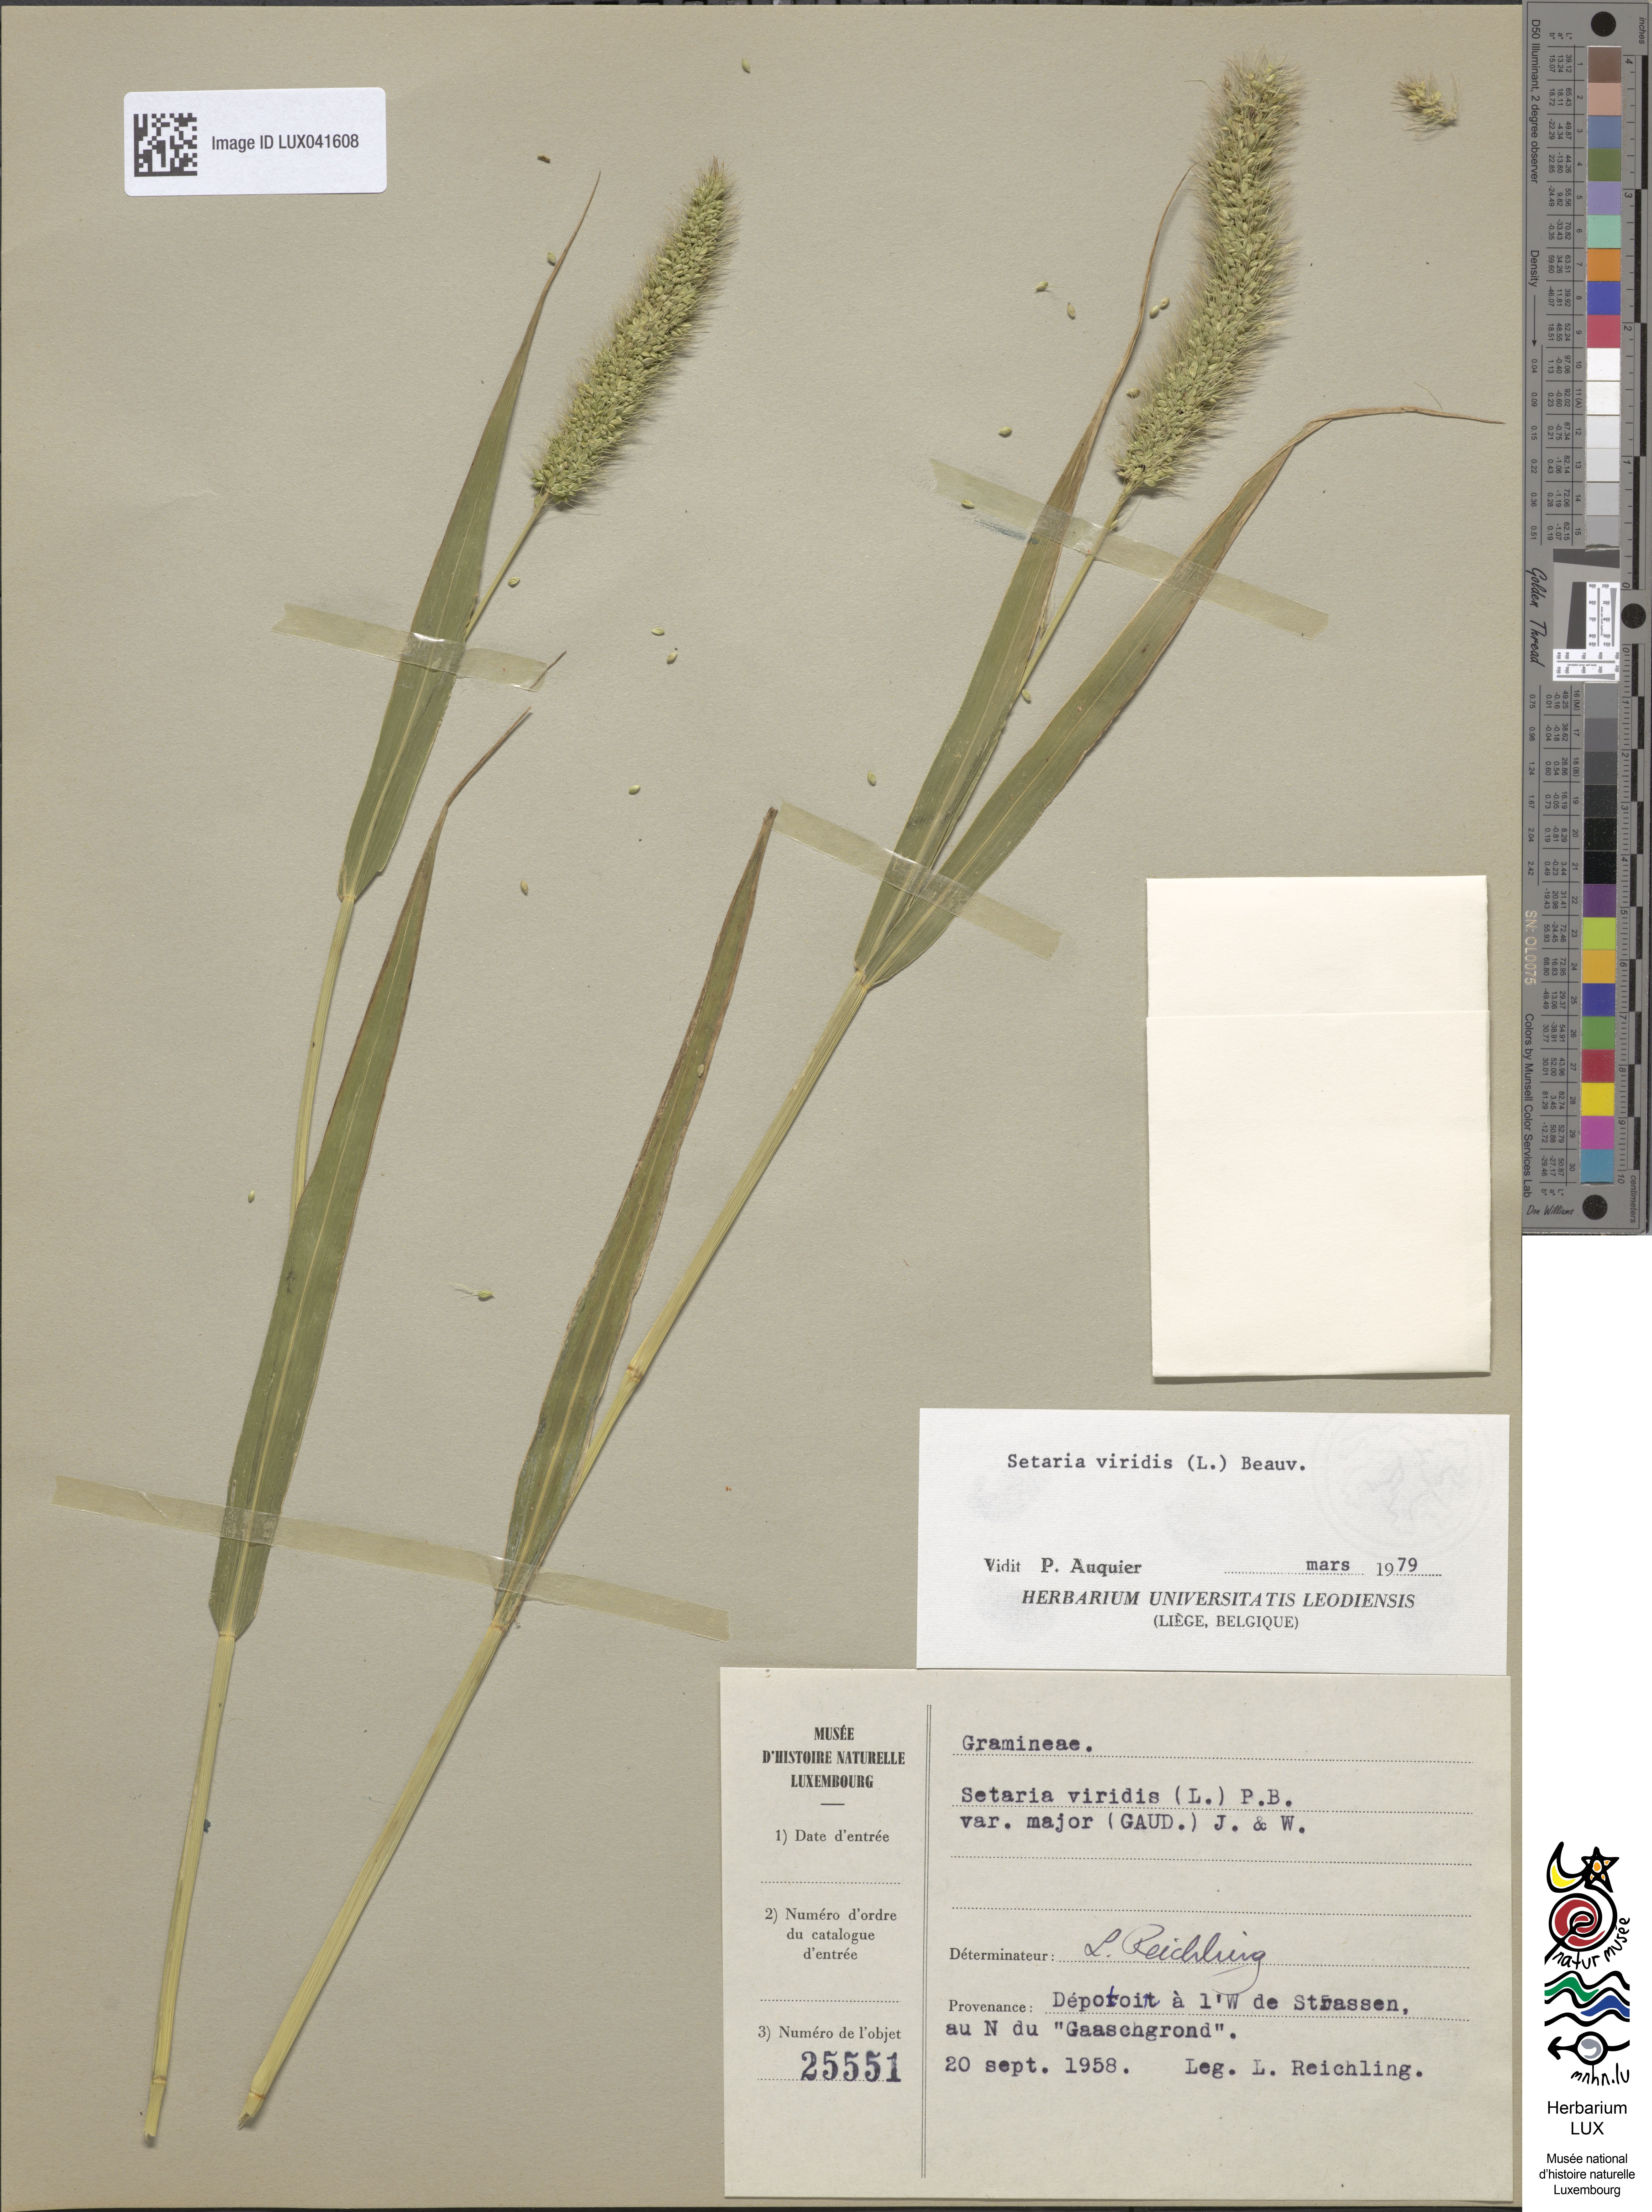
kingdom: Plantae
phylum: Tracheophyta
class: Liliopsida
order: Poales
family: Poaceae
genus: Setaria
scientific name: Setaria viridis
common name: Green bristlegrass
